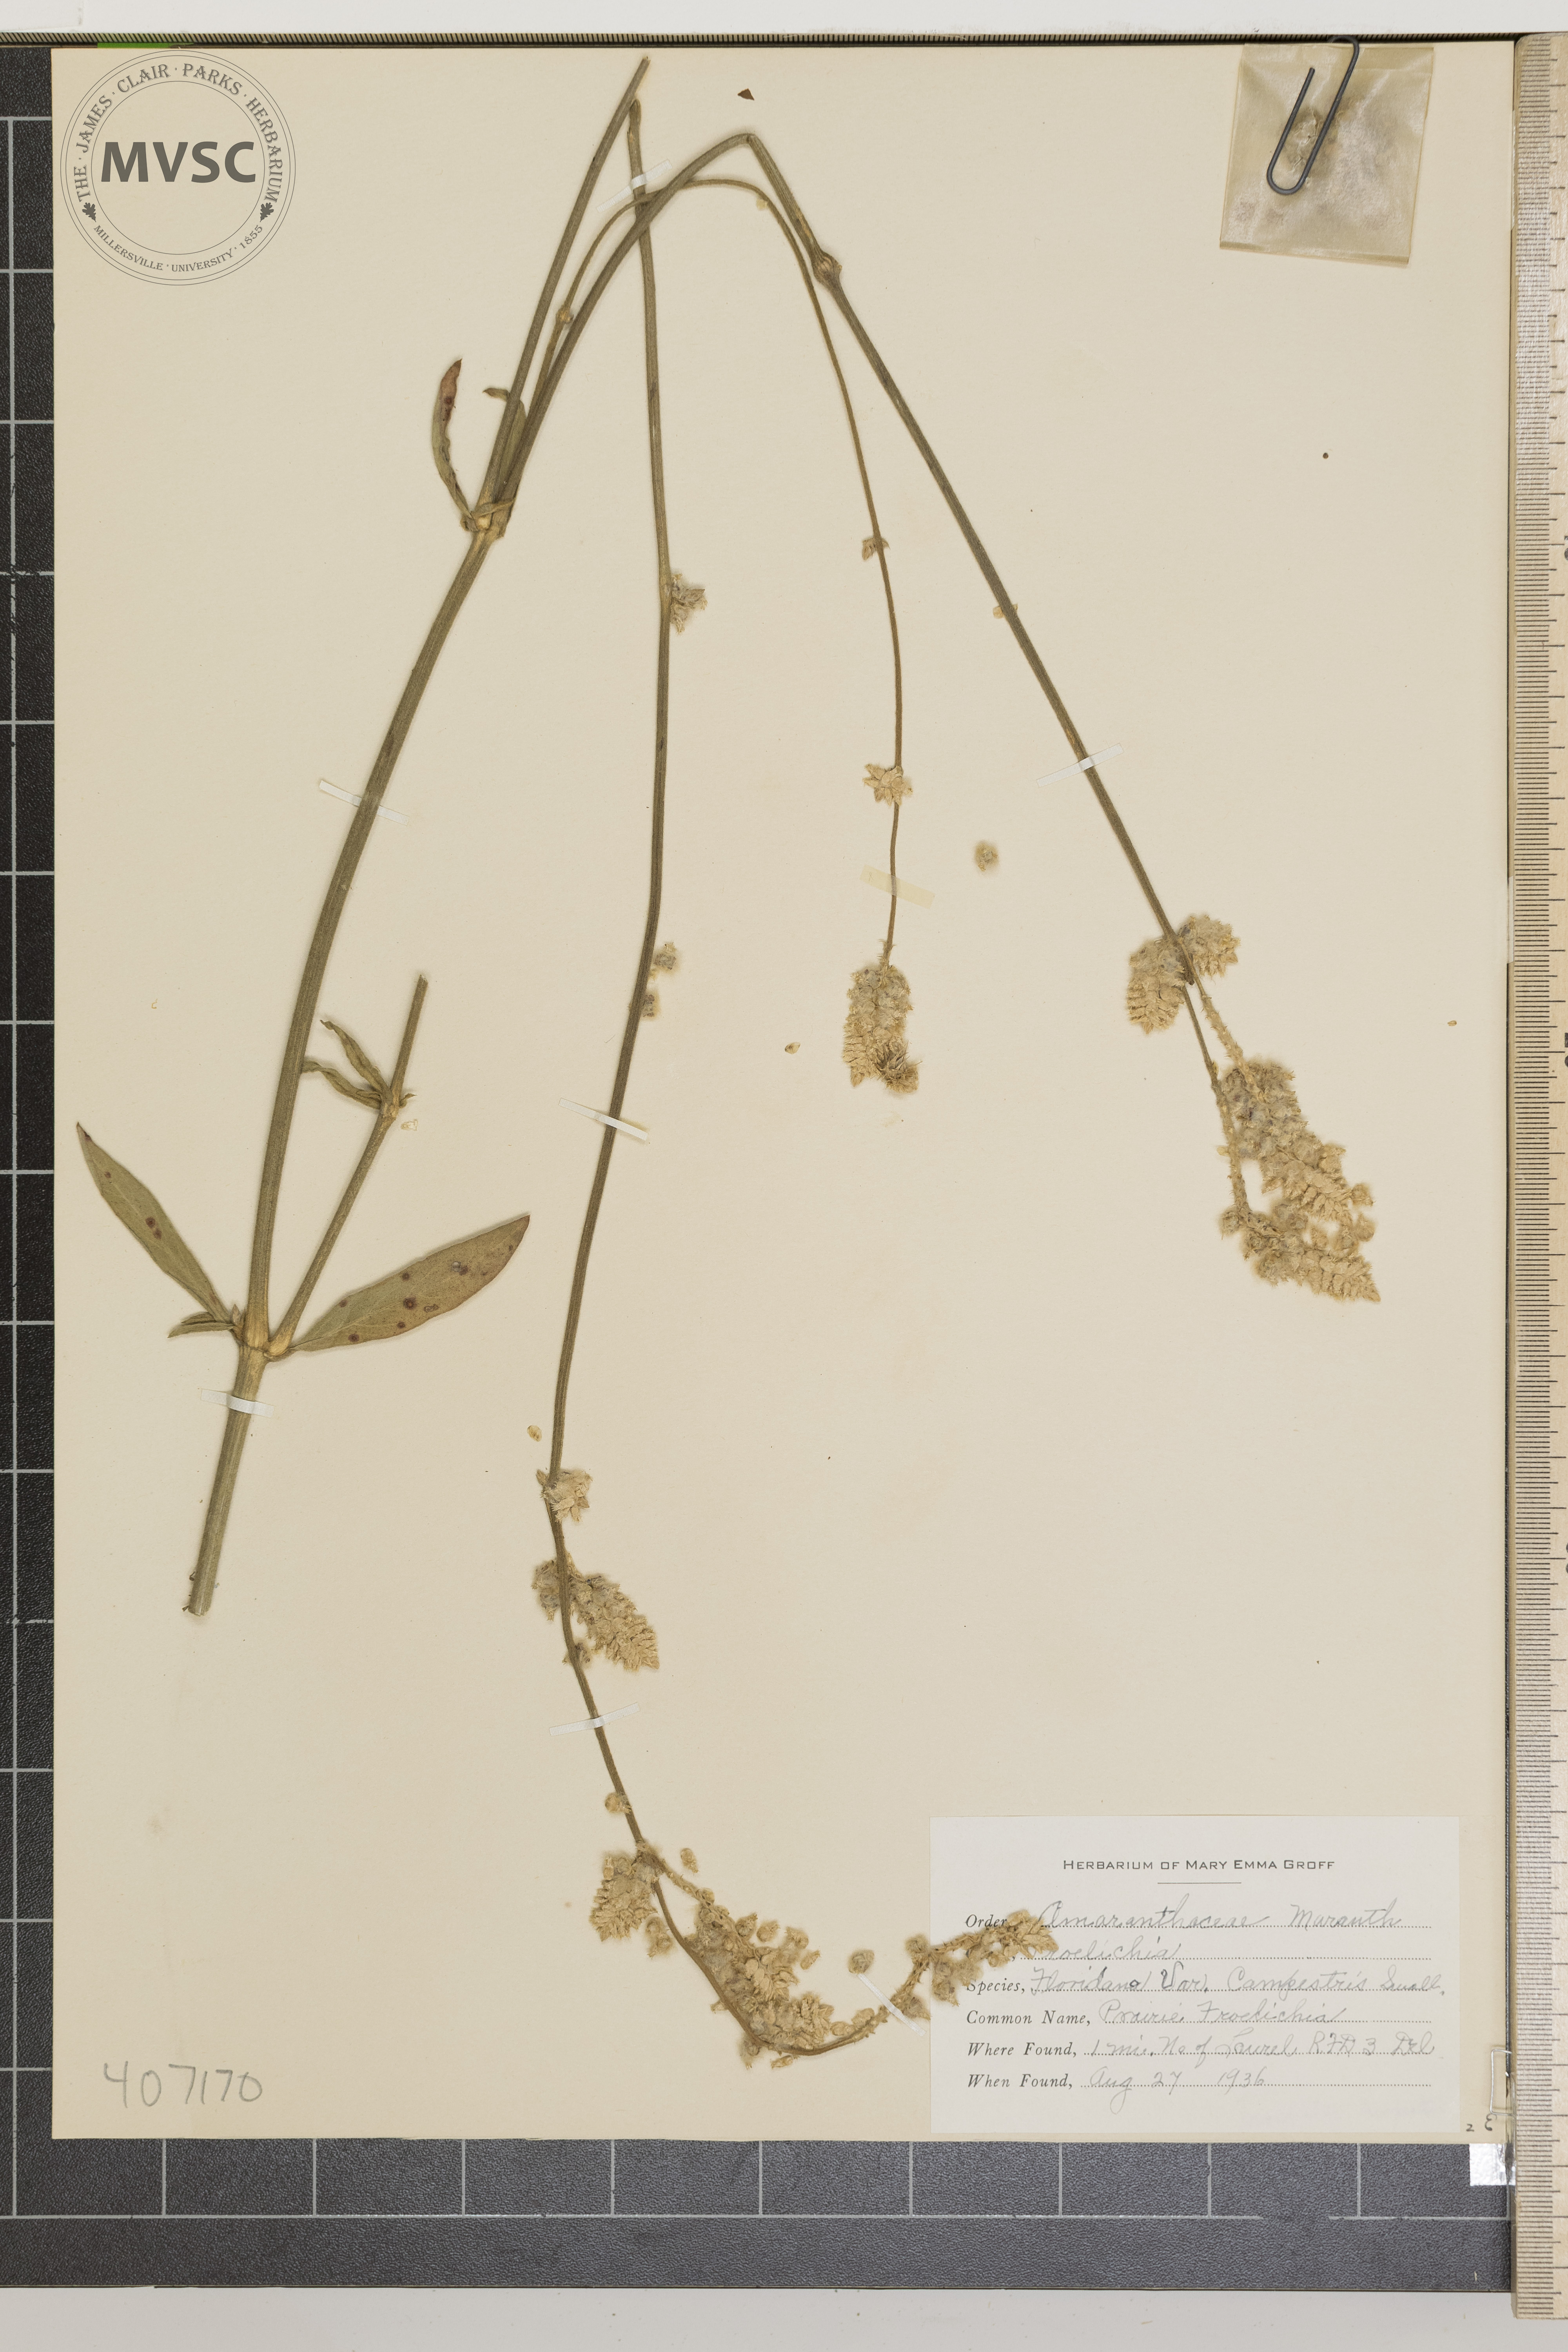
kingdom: Plantae
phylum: Tracheophyta
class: Magnoliopsida
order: Caryophyllales
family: Amaranthaceae
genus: Froelichia
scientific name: Froelichia floridana
